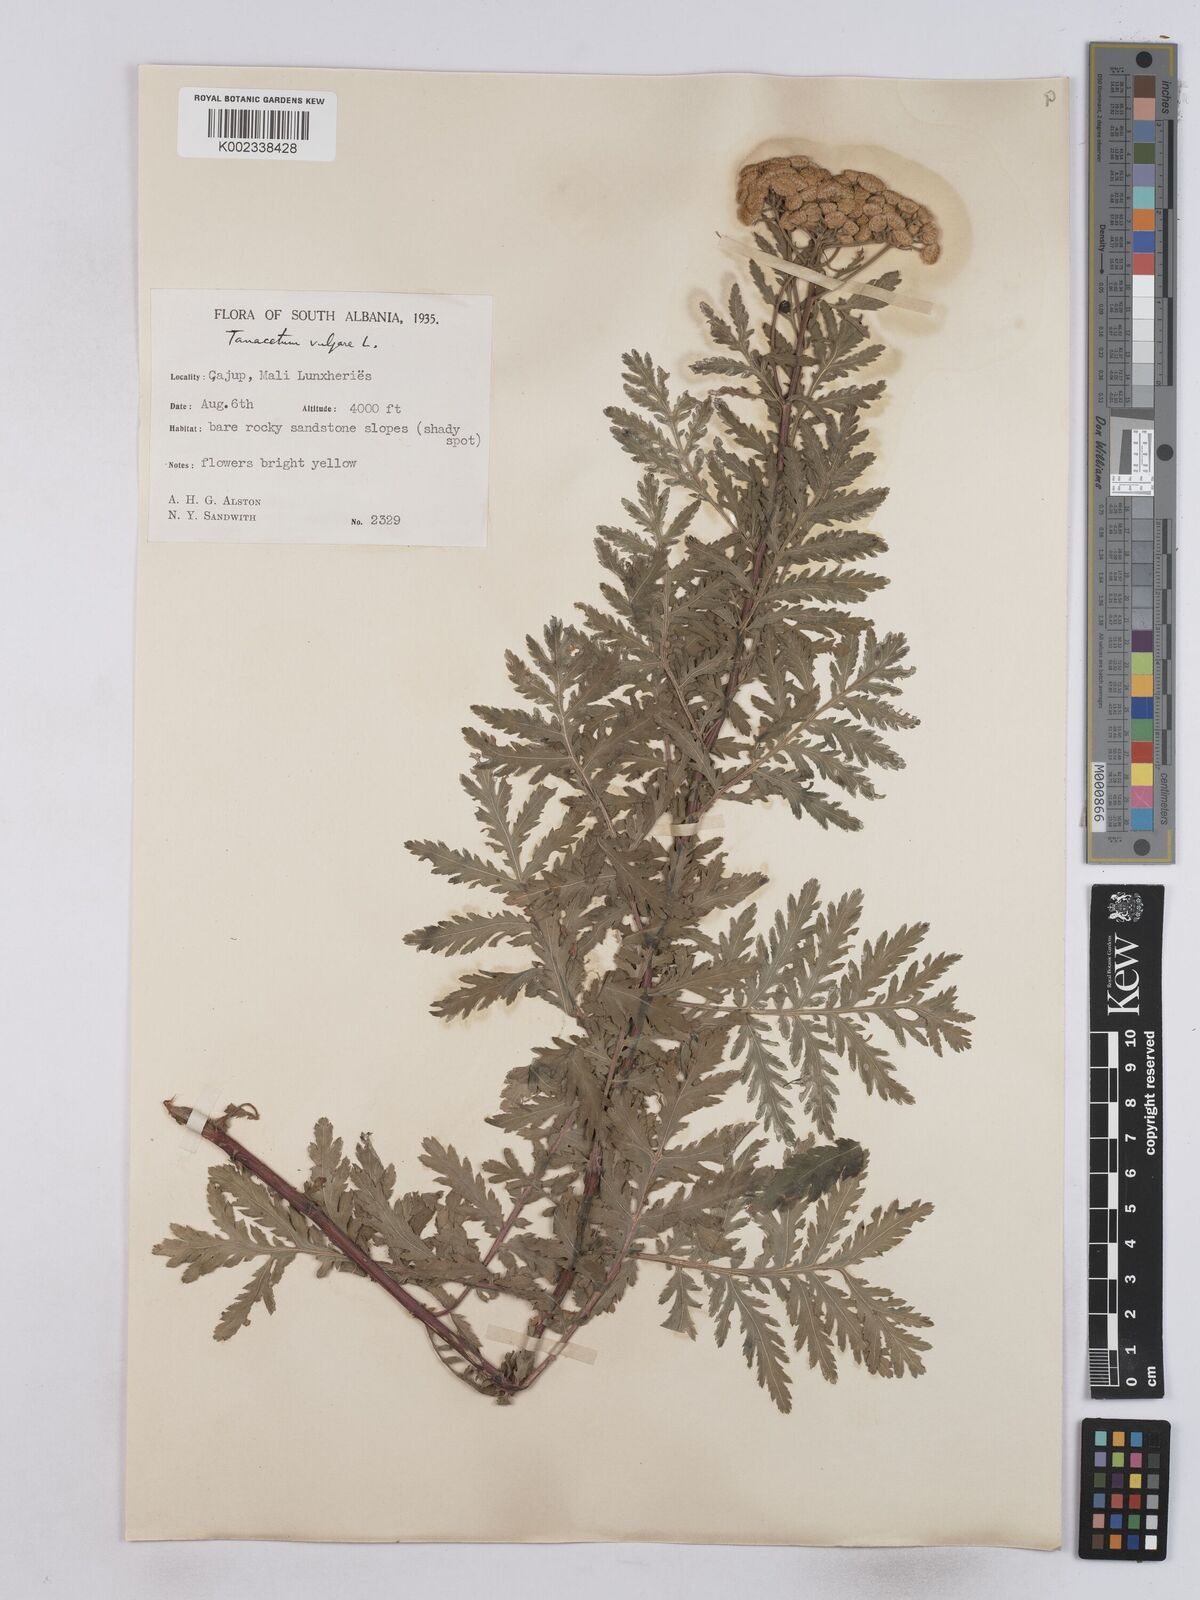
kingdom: Plantae
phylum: Tracheophyta
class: Magnoliopsida
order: Asterales
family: Asteraceae
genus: Tanacetum
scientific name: Tanacetum vulgare
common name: Common tansy
